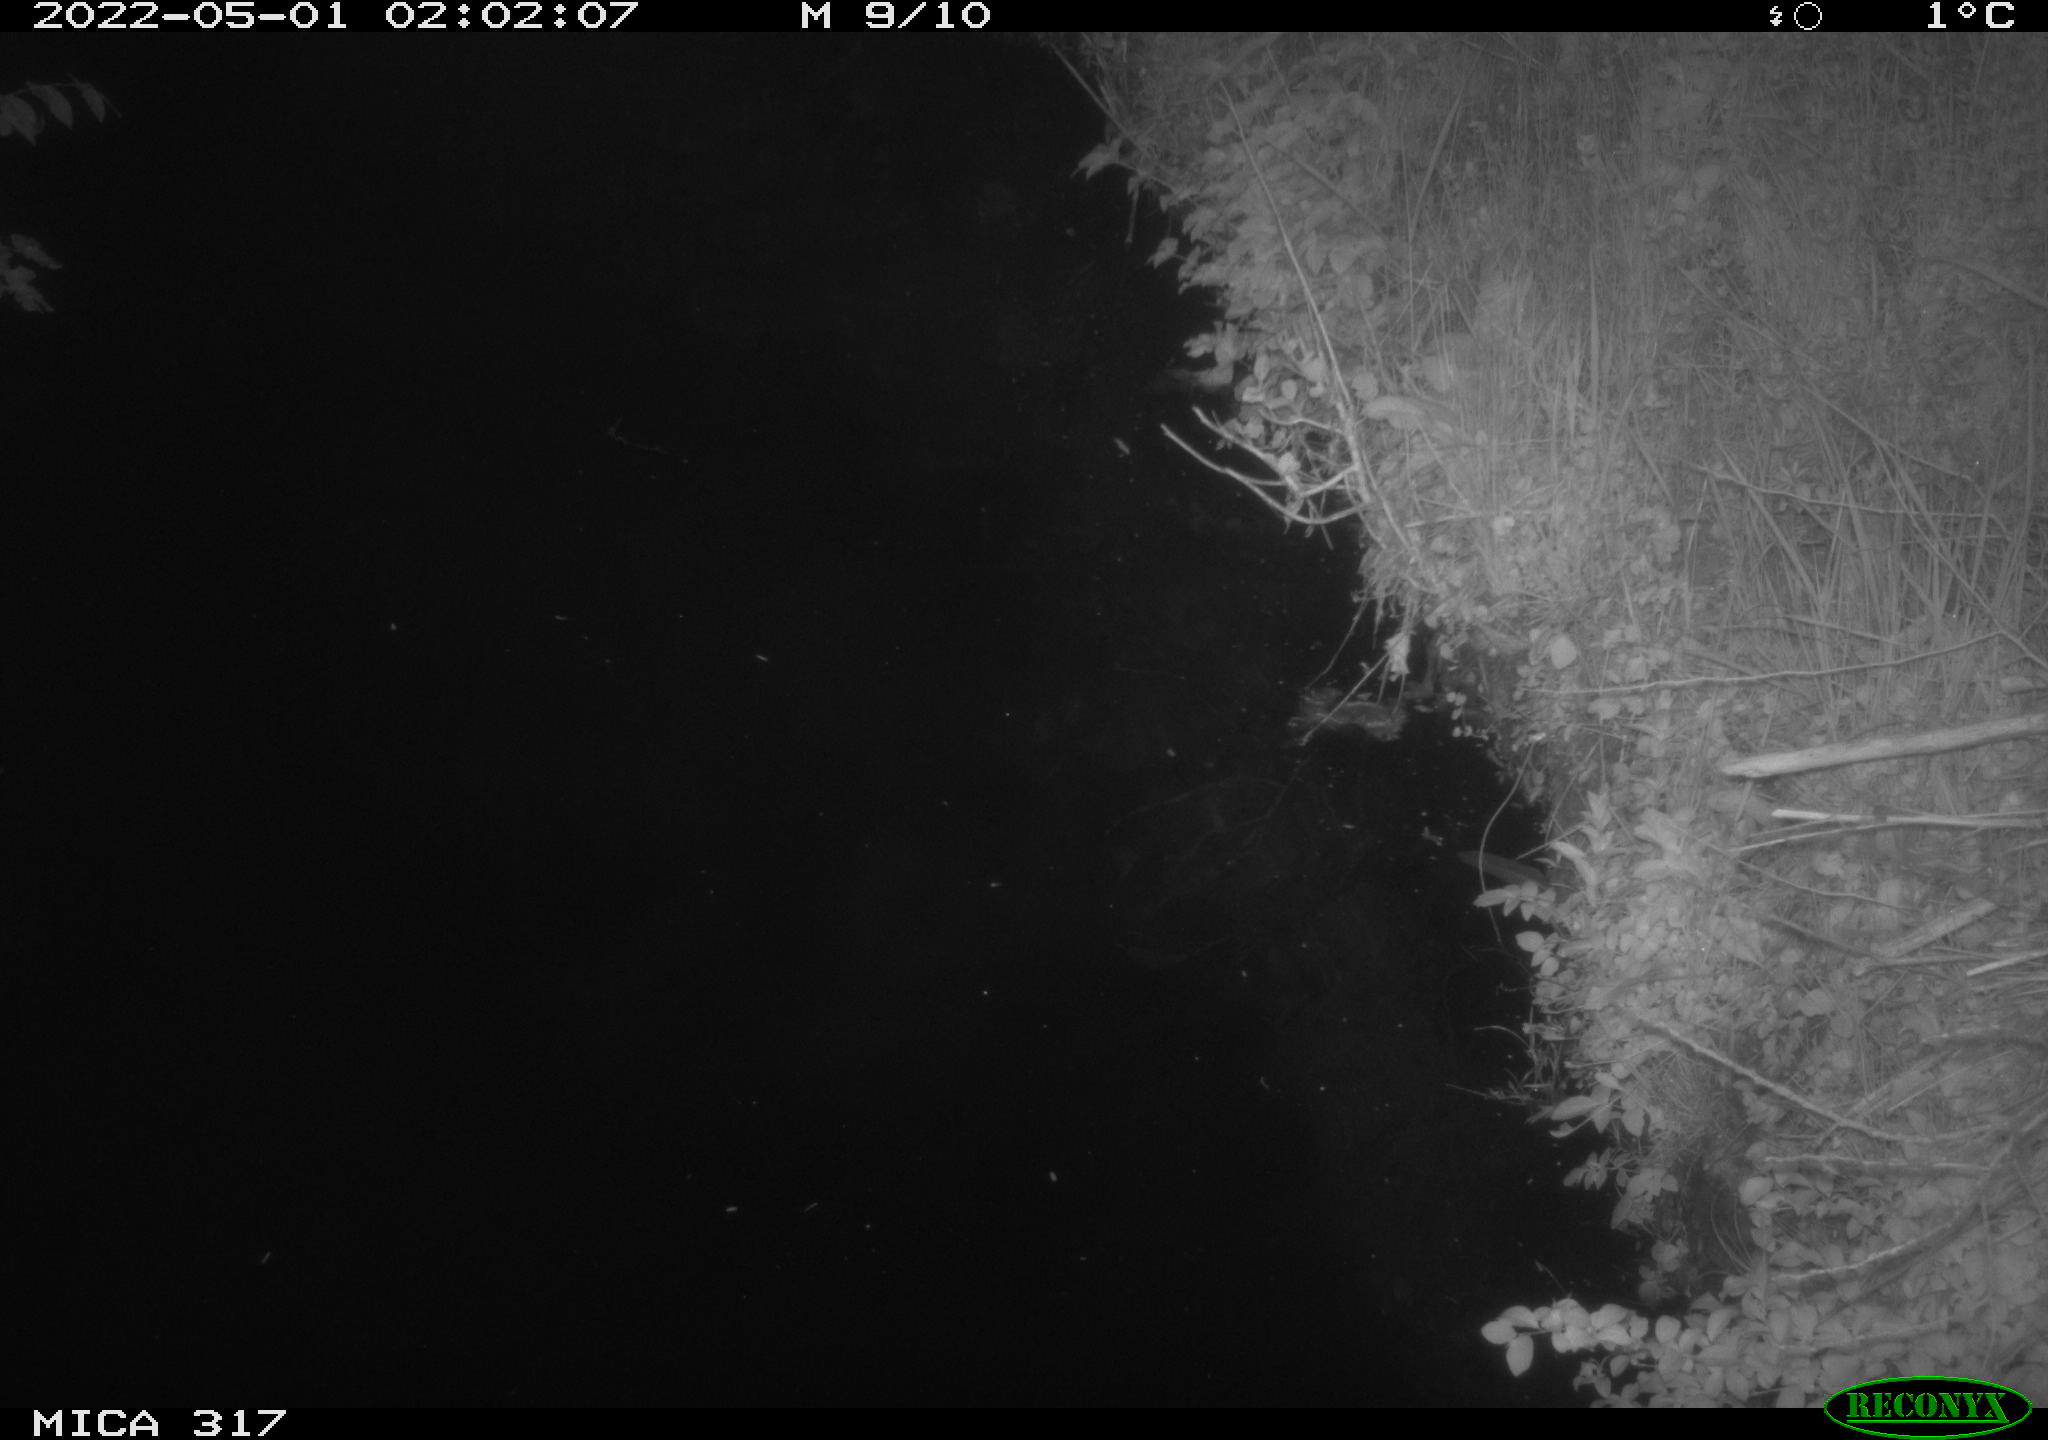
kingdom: Animalia
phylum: Chordata
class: Aves
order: Anseriformes
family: Anatidae
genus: Anas
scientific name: Anas platyrhynchos
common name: Mallard
